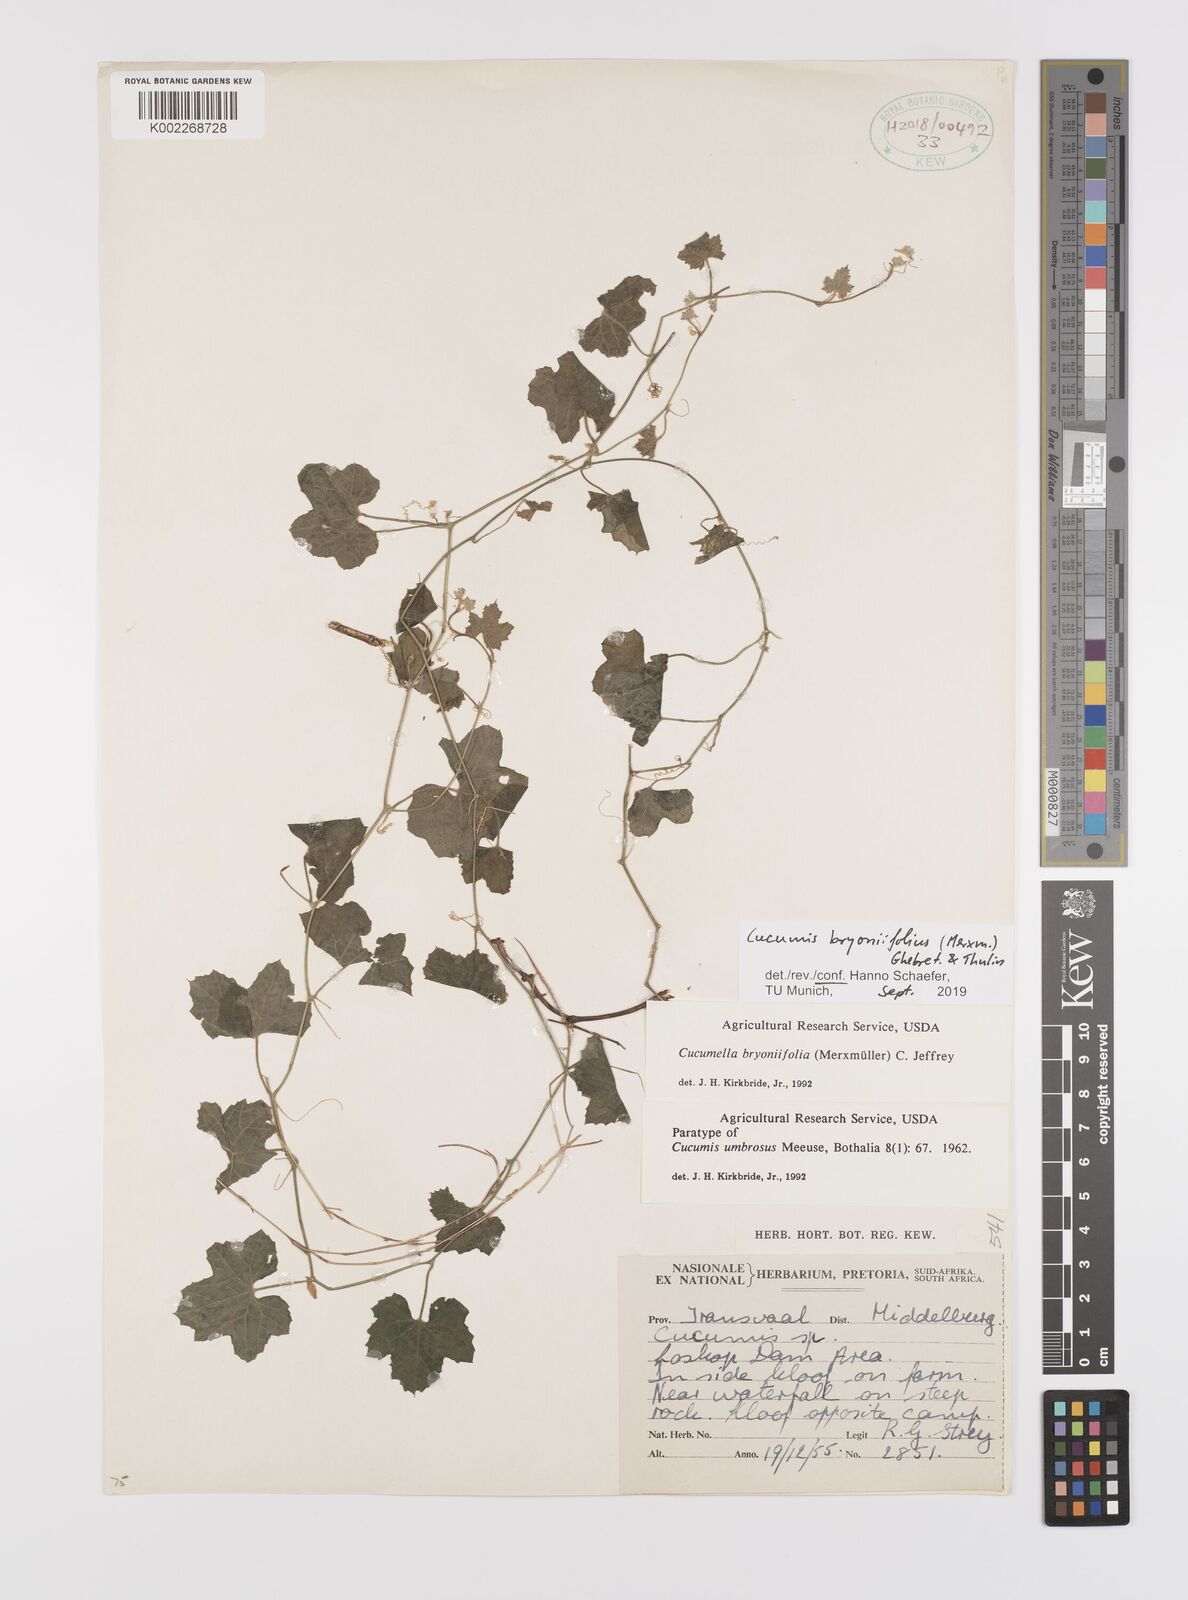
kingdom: Plantae
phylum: Tracheophyta
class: Magnoliopsida
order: Cucurbitales
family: Cucurbitaceae
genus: Cucumis
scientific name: Cucumis bryoniifolius
